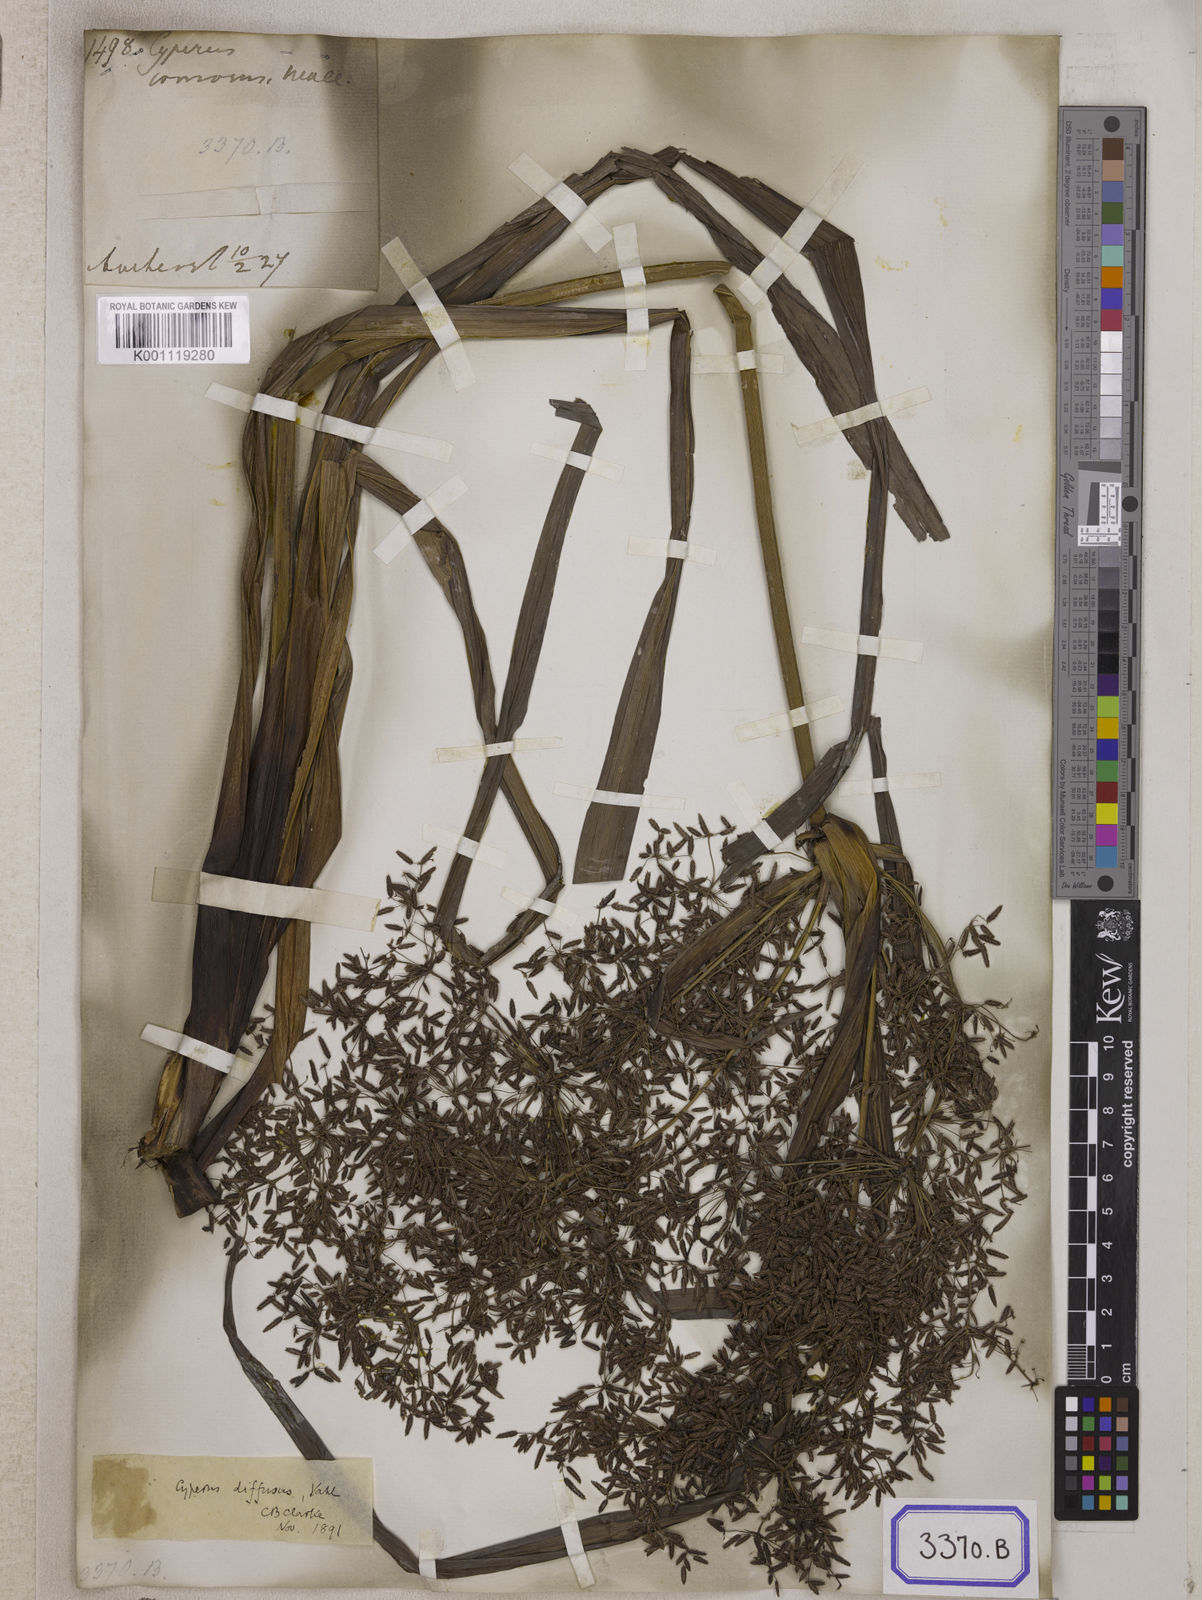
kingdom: Plantae
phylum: Tracheophyta
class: Liliopsida
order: Poales
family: Cyperaceae
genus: Cyperus
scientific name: Cyperus
